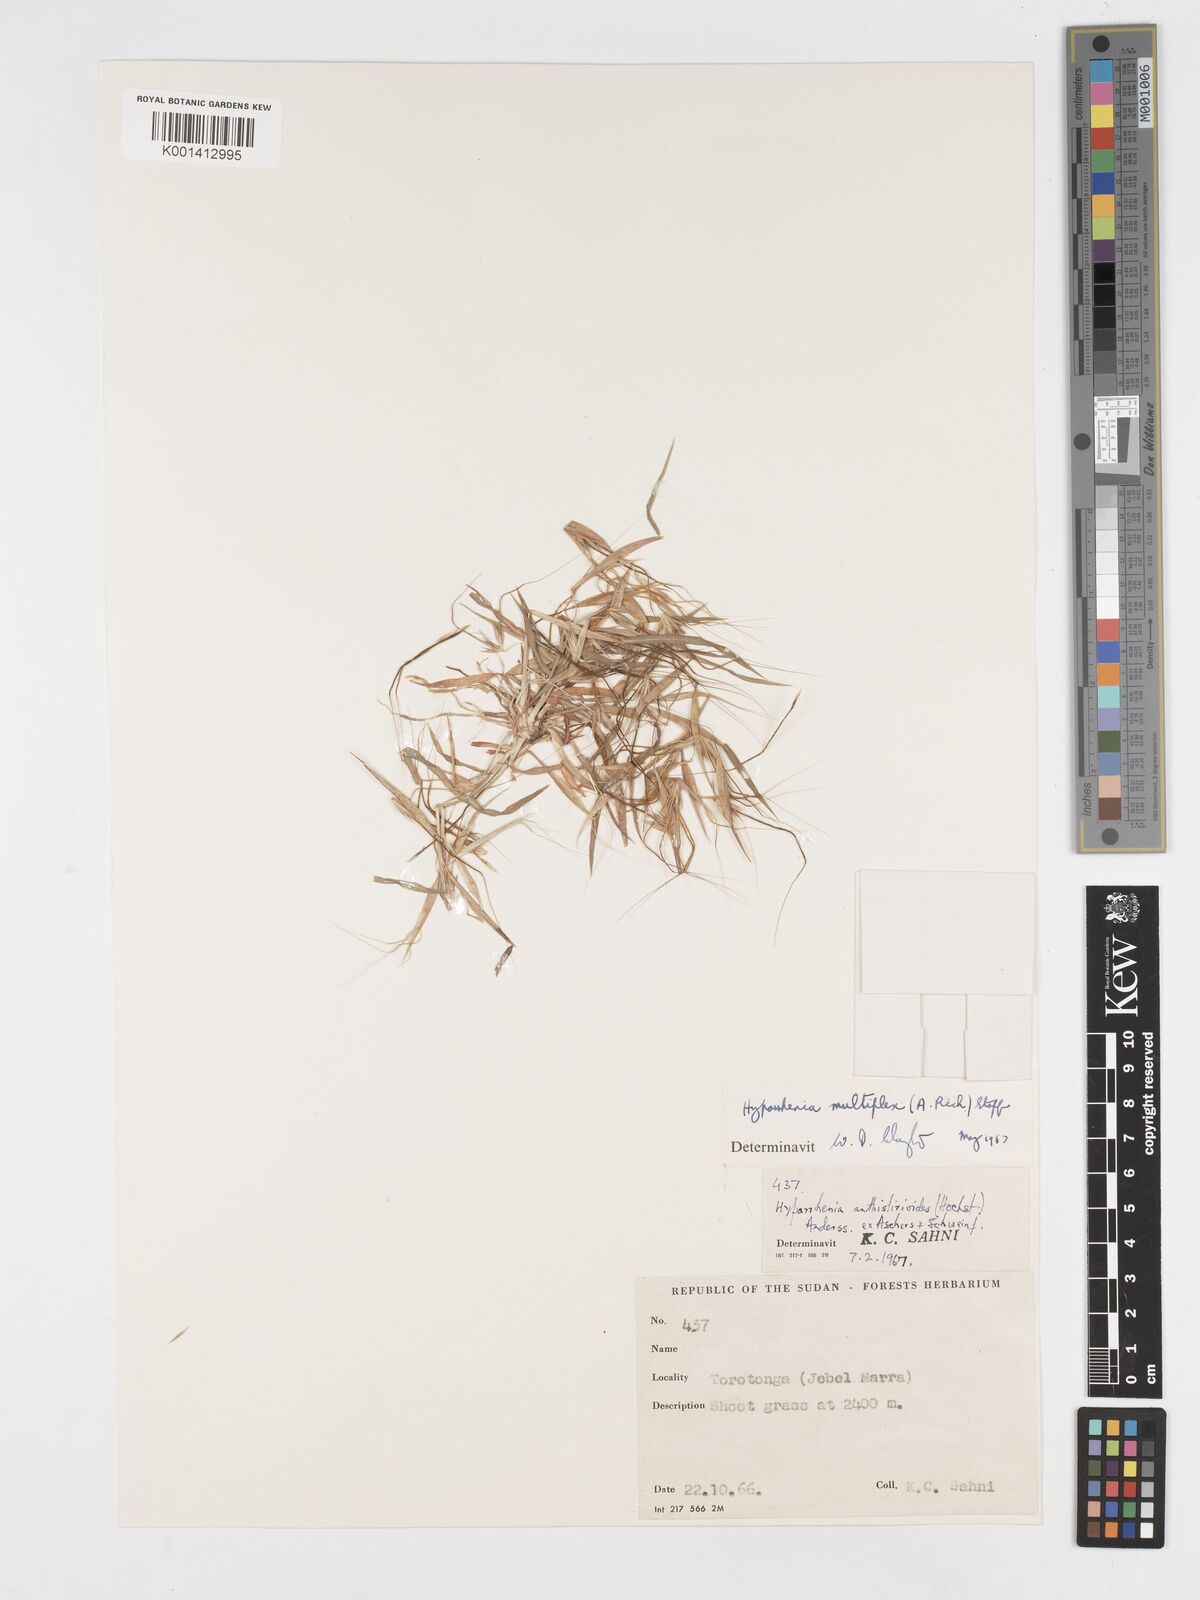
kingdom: Plantae
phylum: Tracheophyta
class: Liliopsida
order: Poales
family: Poaceae
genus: Hyparrhenia
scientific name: Hyparrhenia multiplex
